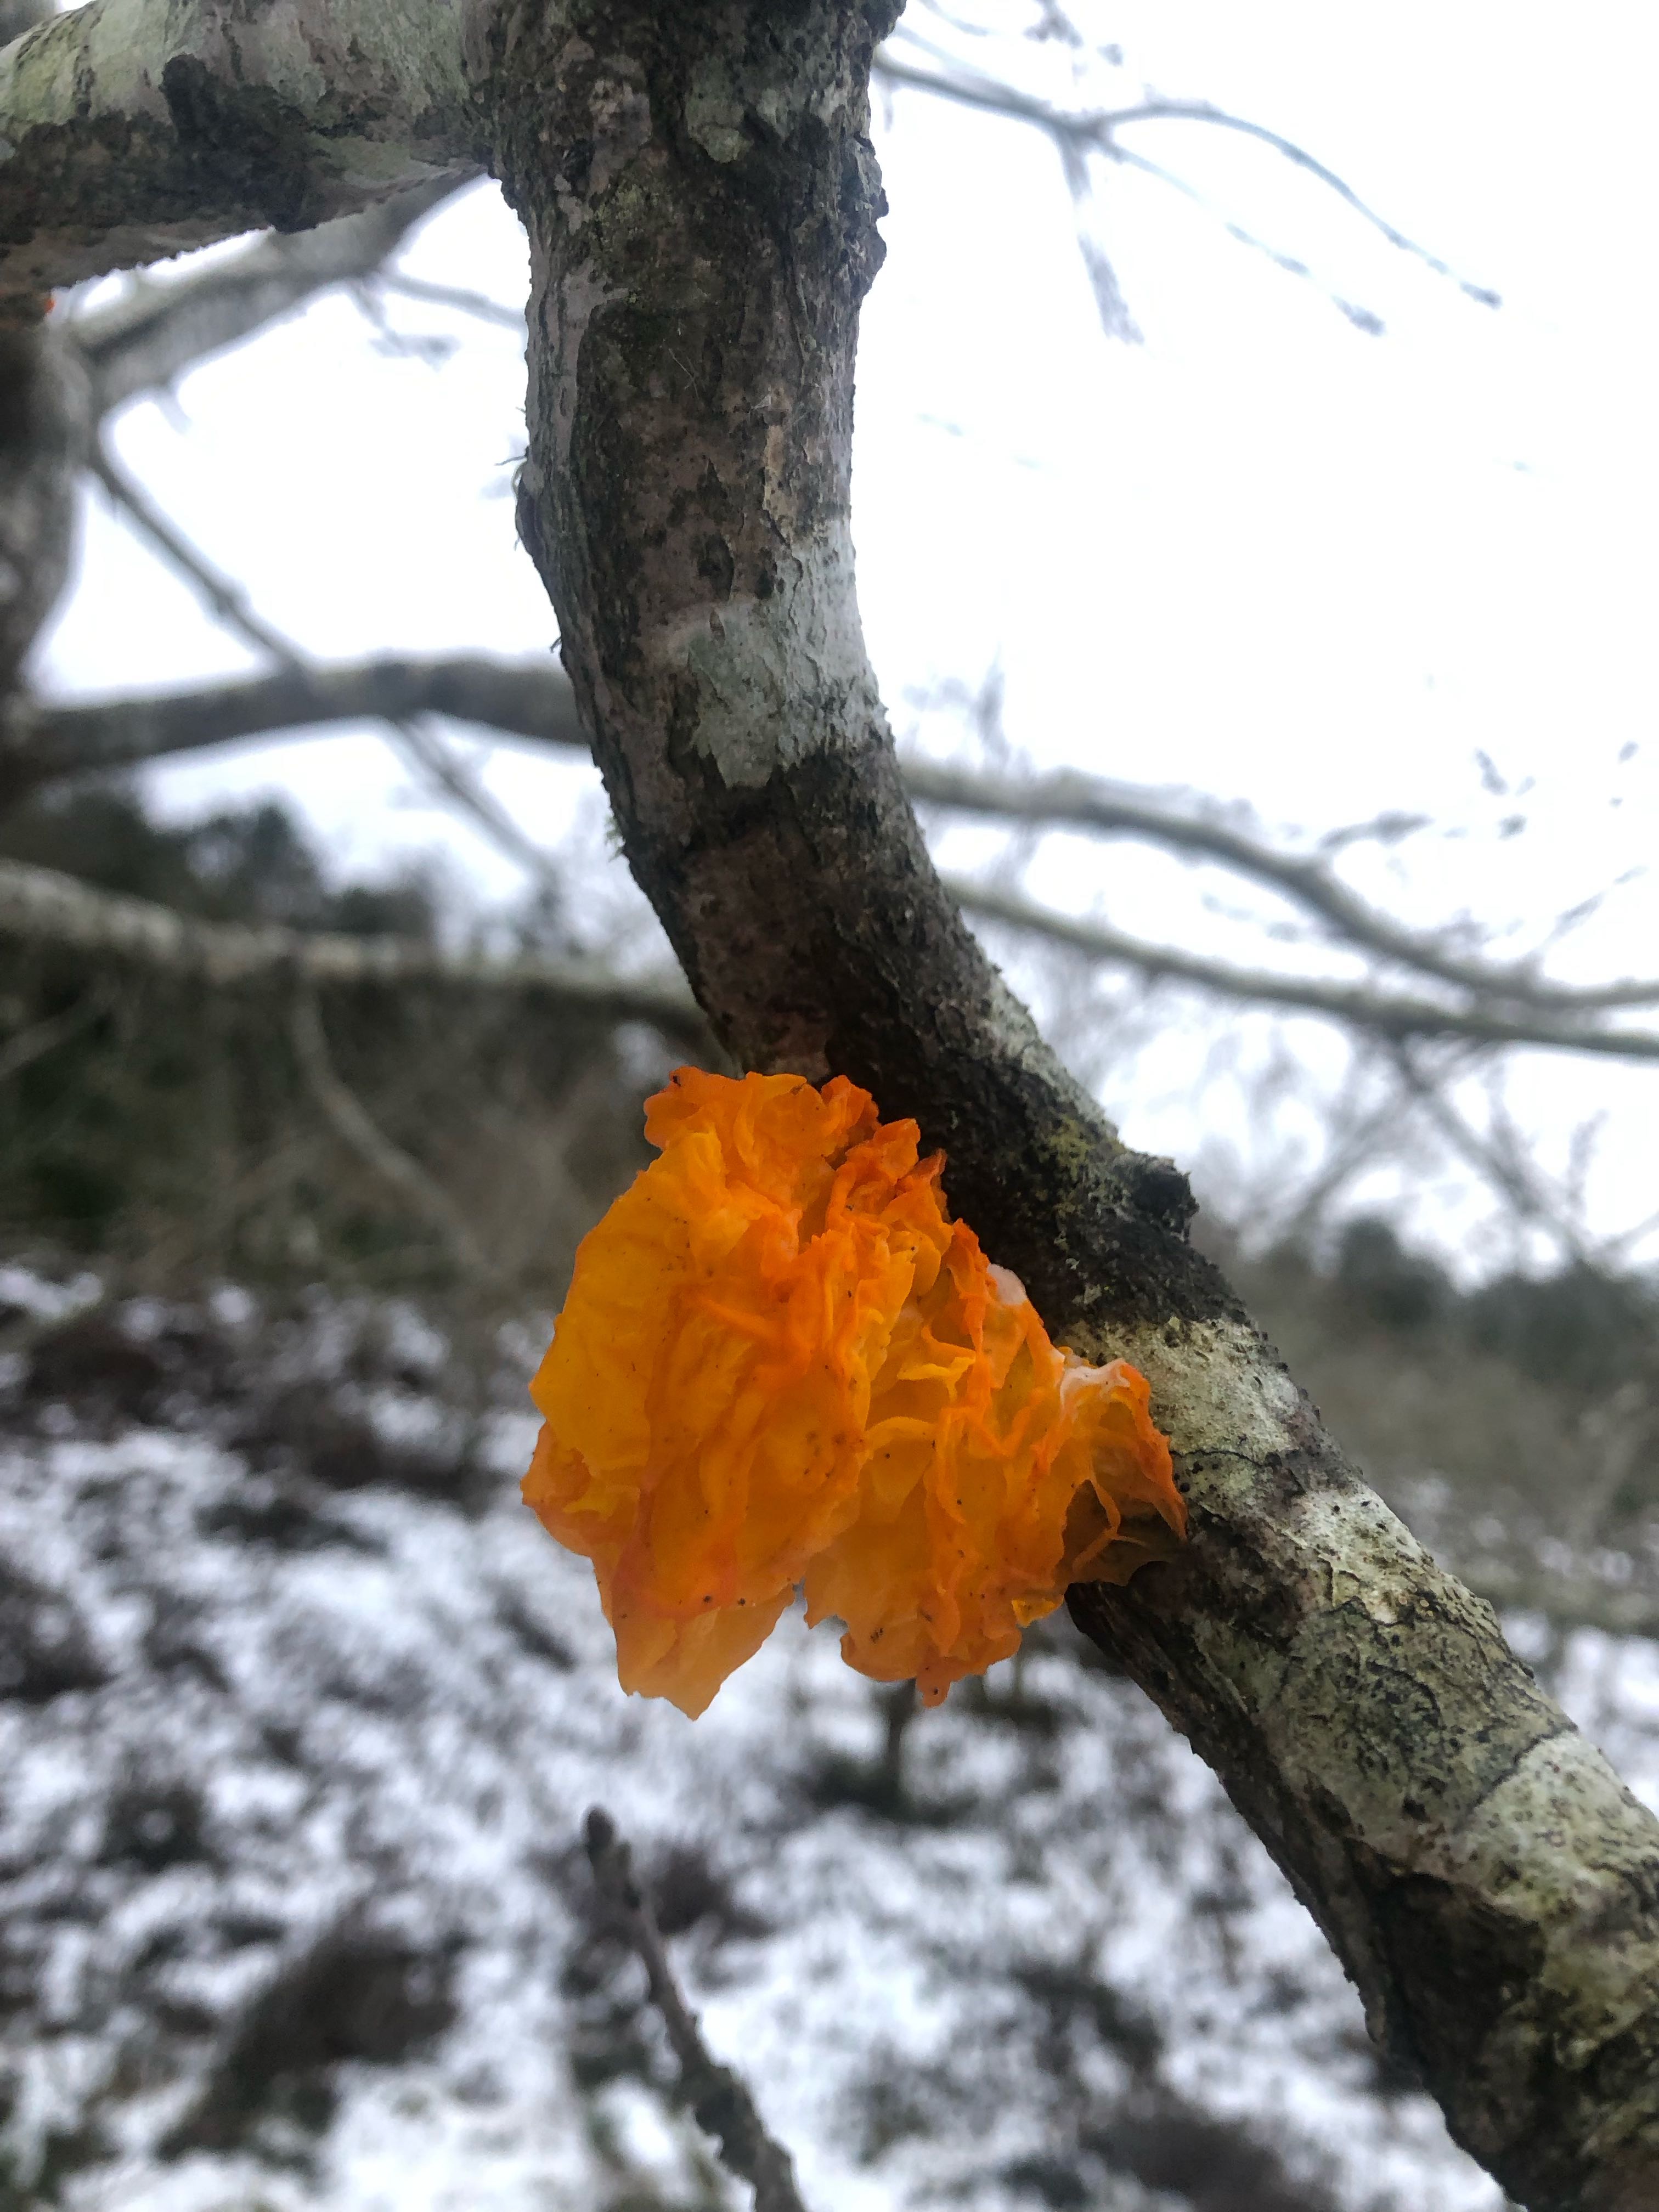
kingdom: Fungi
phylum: Basidiomycota
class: Tremellomycetes
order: Tremellales
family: Tremellaceae
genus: Tremella
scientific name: Tremella mesenterica
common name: gul bævresvamp
